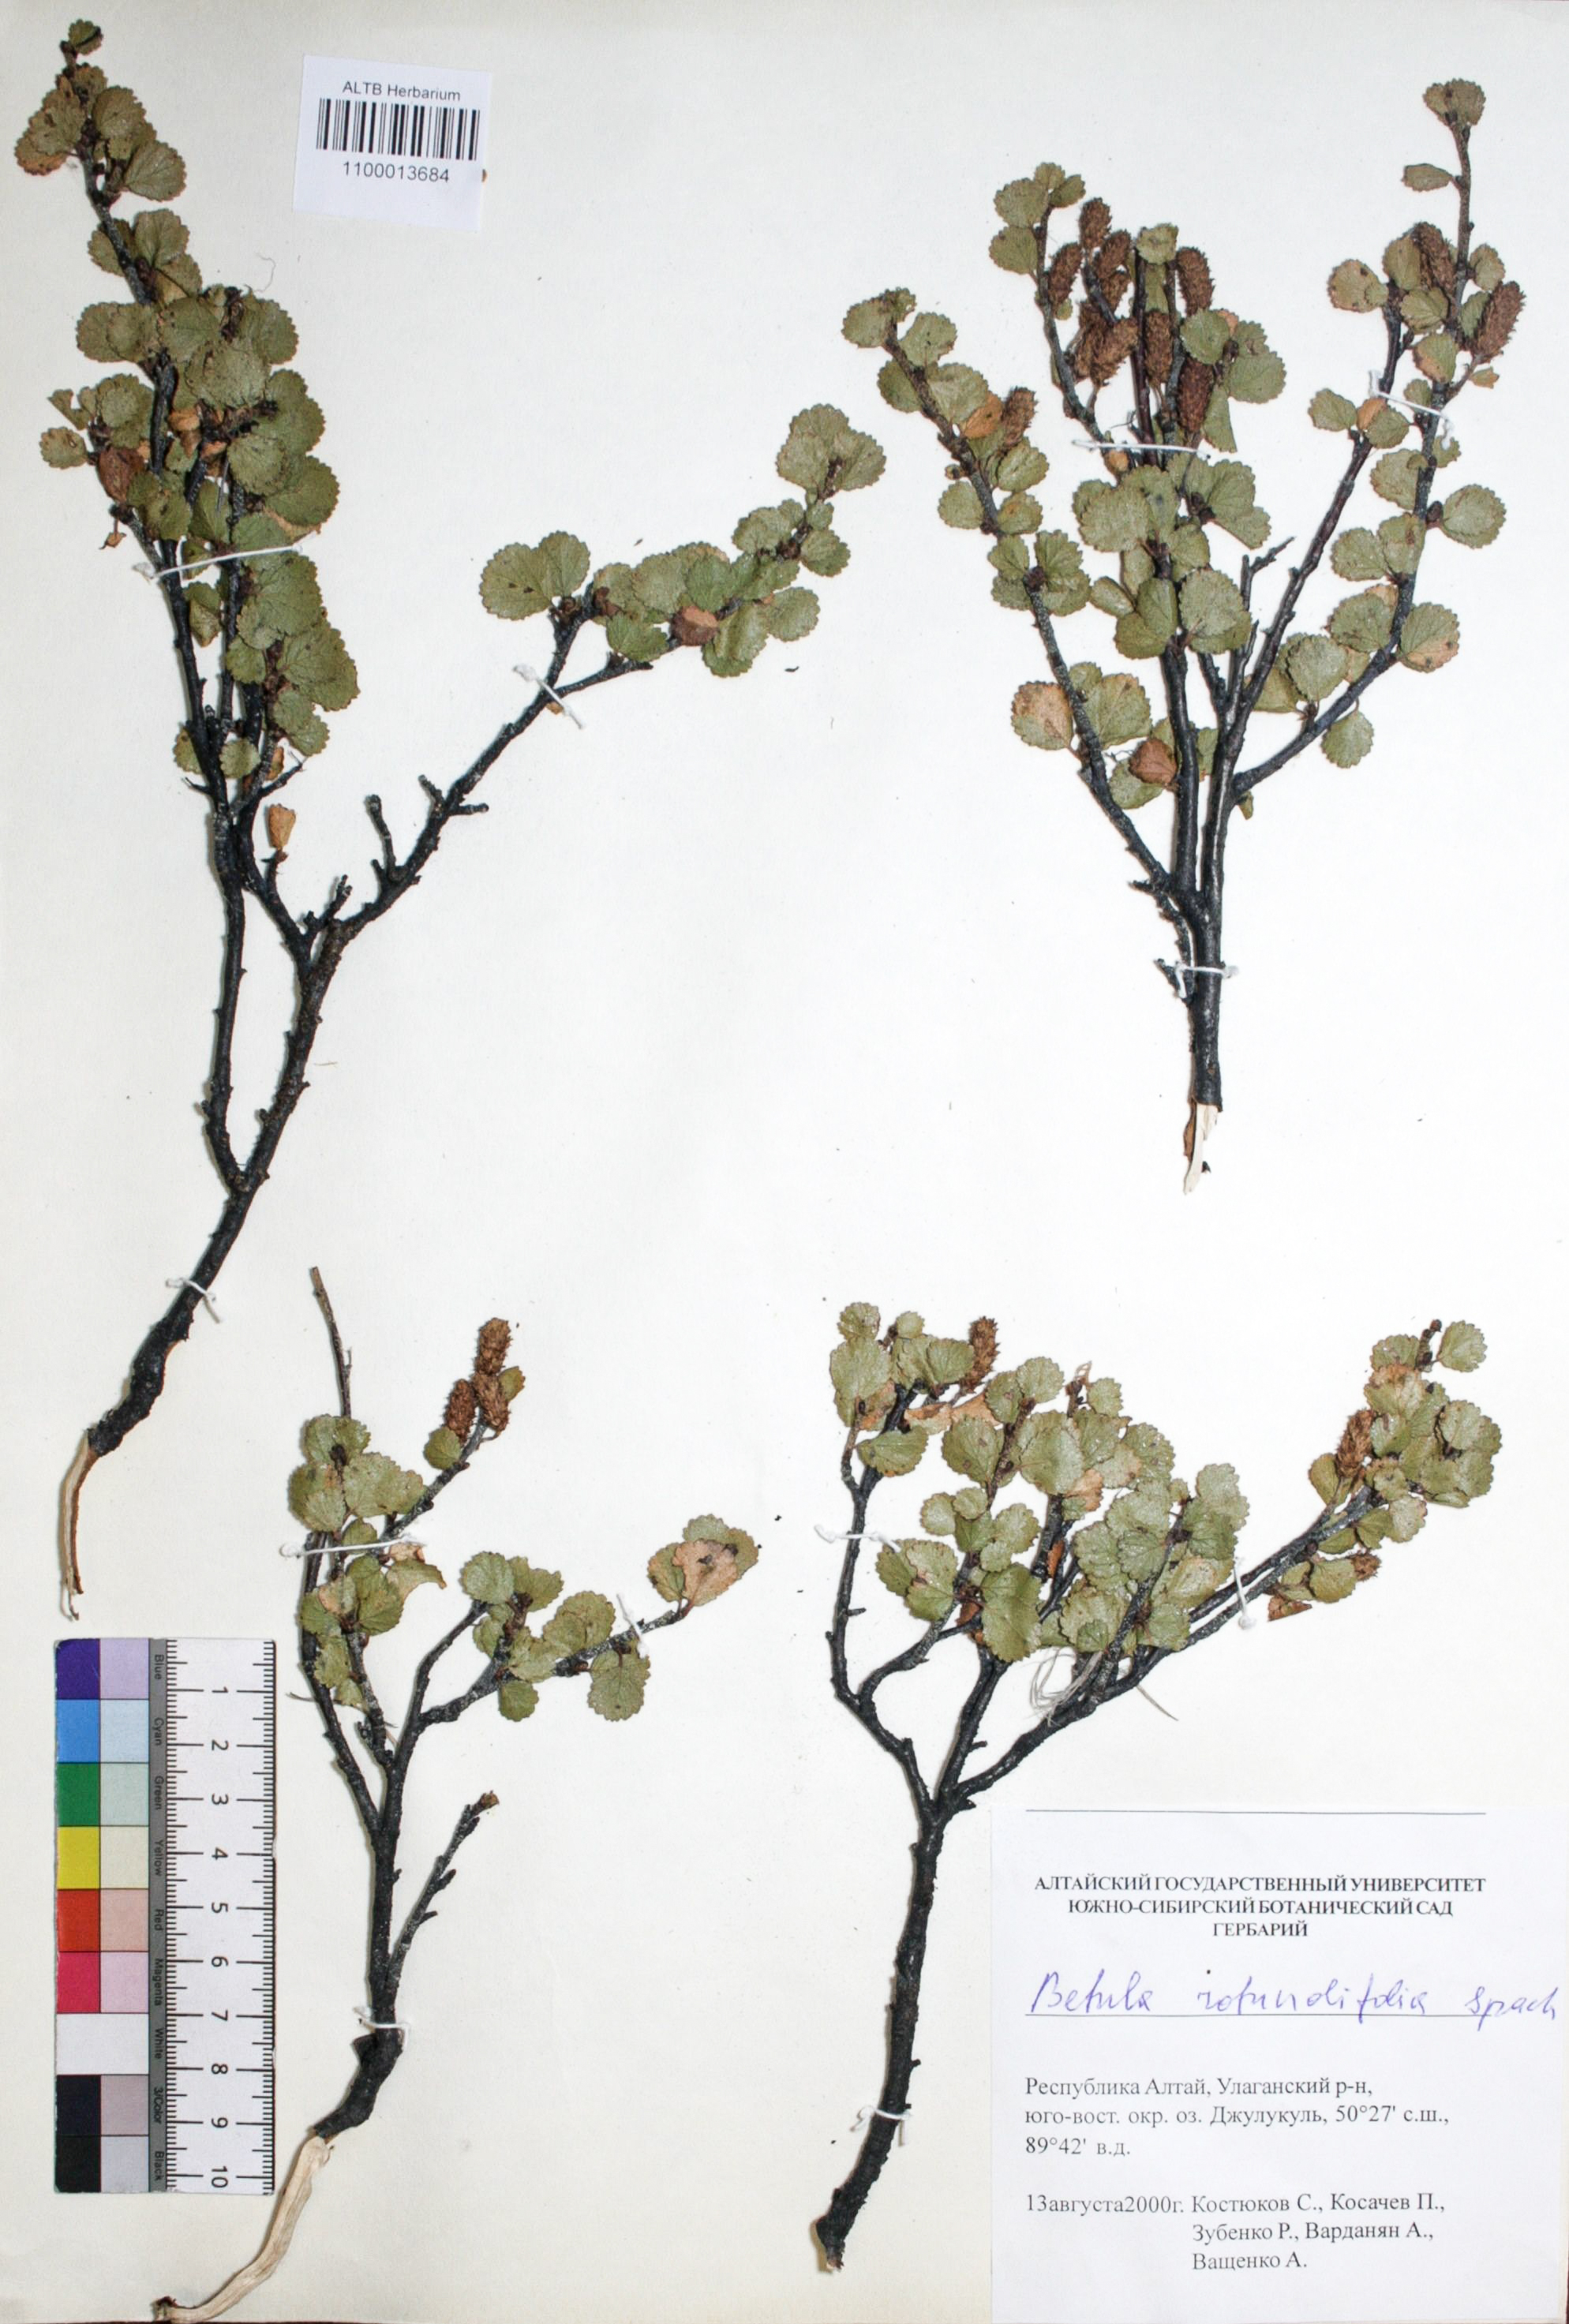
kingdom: Plantae
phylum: Tracheophyta
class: Magnoliopsida
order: Fagales
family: Betulaceae
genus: Betula
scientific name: Betula glandulosa
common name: Dwarf birch
